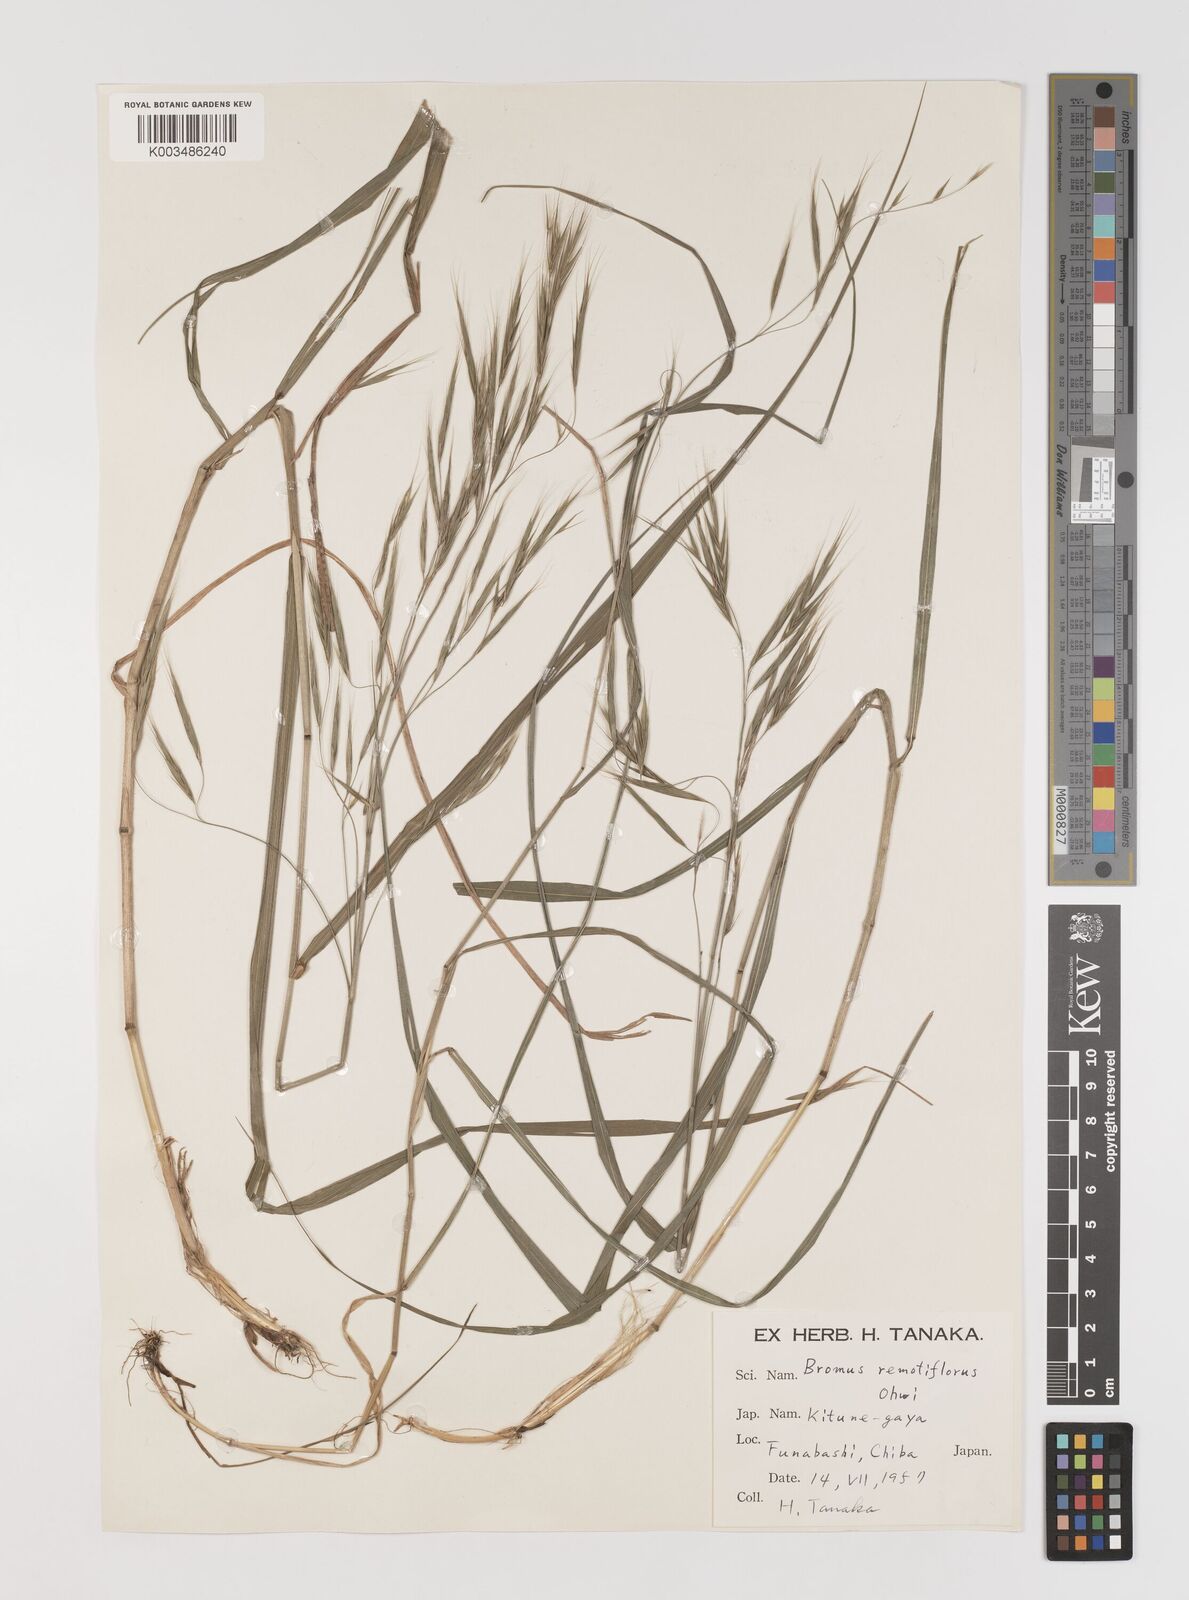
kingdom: Plantae
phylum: Tracheophyta
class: Liliopsida
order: Poales
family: Poaceae
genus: Bromus
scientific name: Bromus remotiflorus
